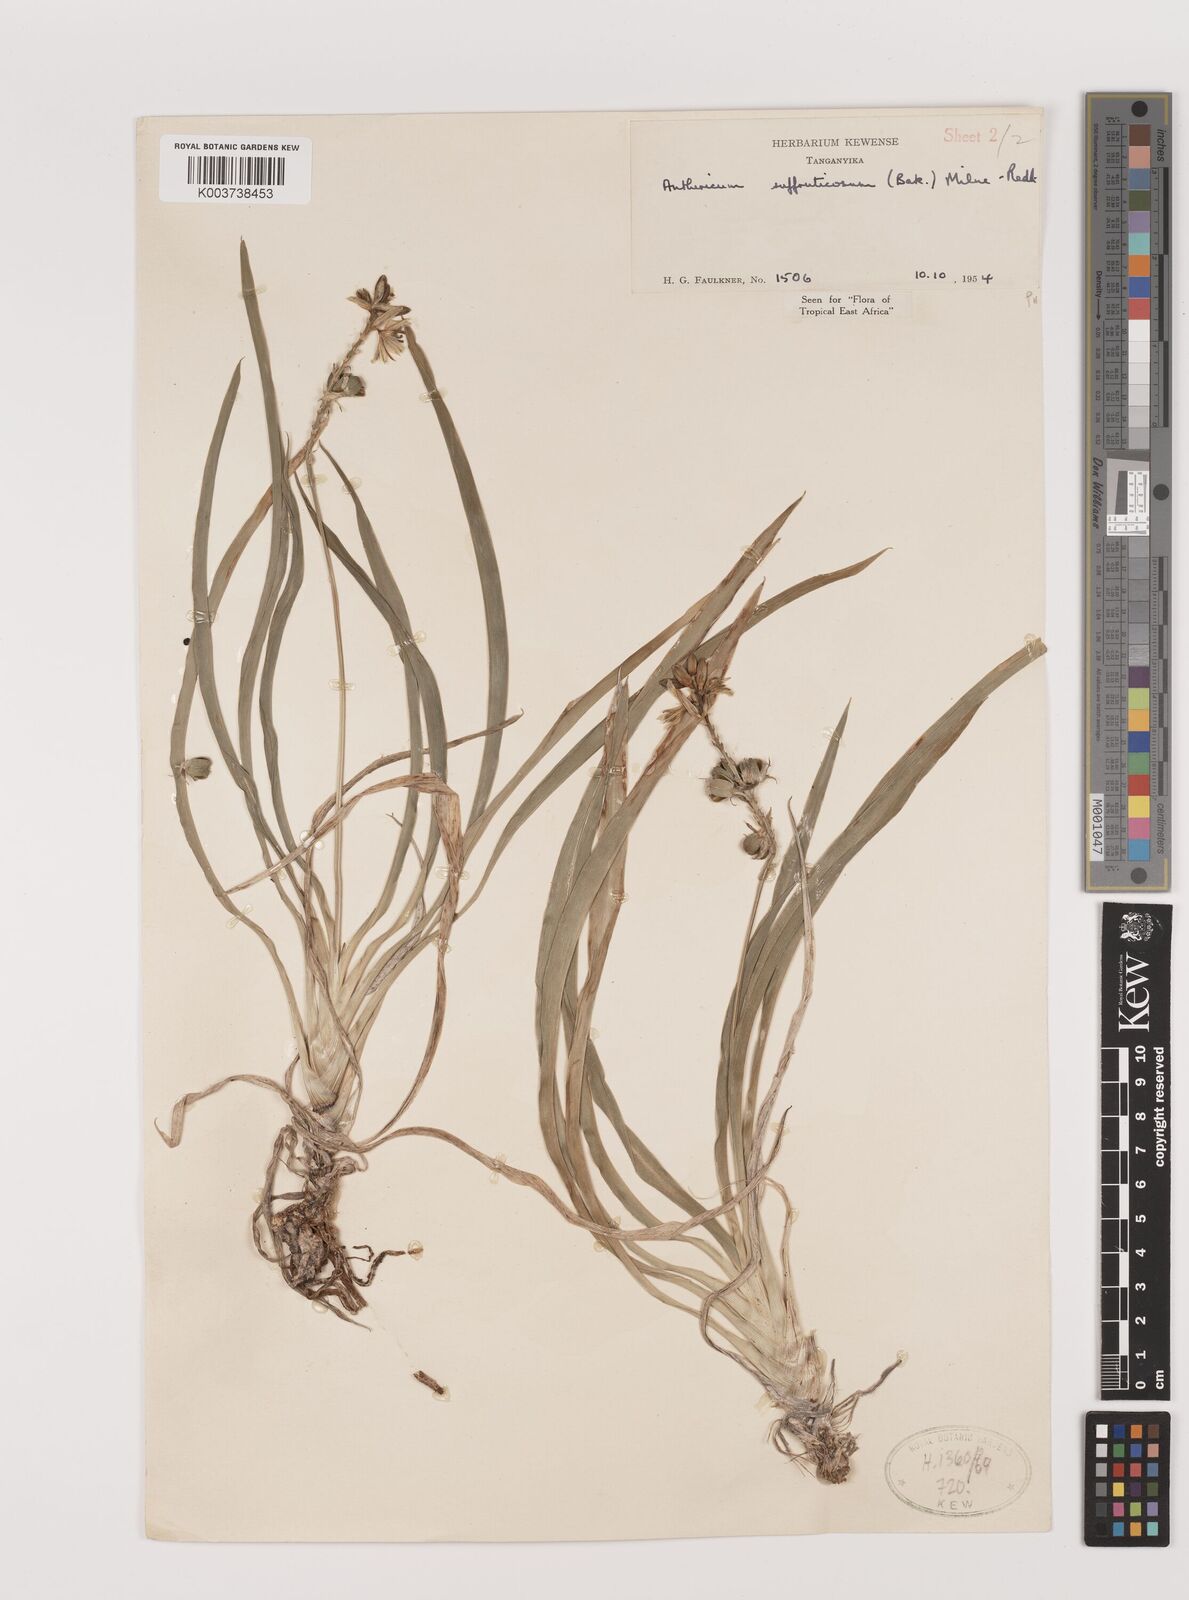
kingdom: Plantae
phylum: Tracheophyta
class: Liliopsida
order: Asparagales
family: Asparagaceae
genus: Chlorophytum
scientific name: Chlorophytum suffruticosum
